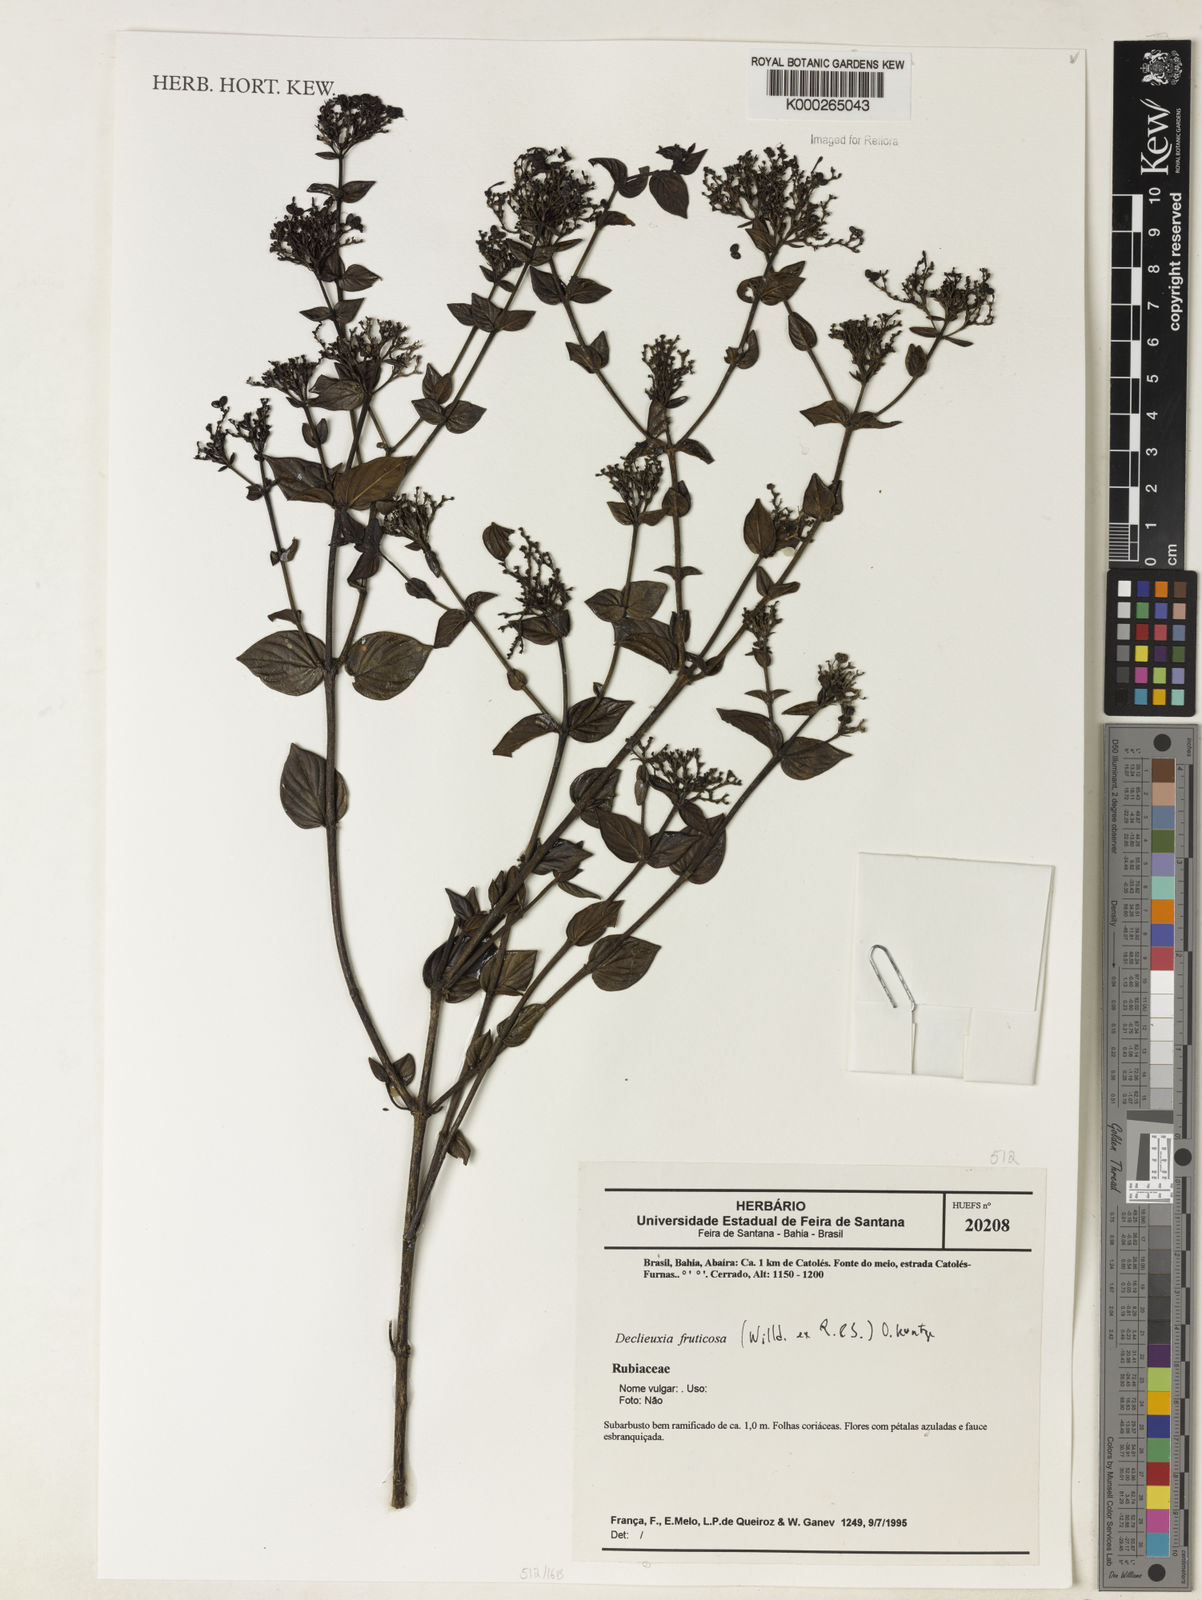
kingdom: Plantae
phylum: Tracheophyta
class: Magnoliopsida
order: Gentianales
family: Rubiaceae
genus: Declieuxia
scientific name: Declieuxia fruticosa
